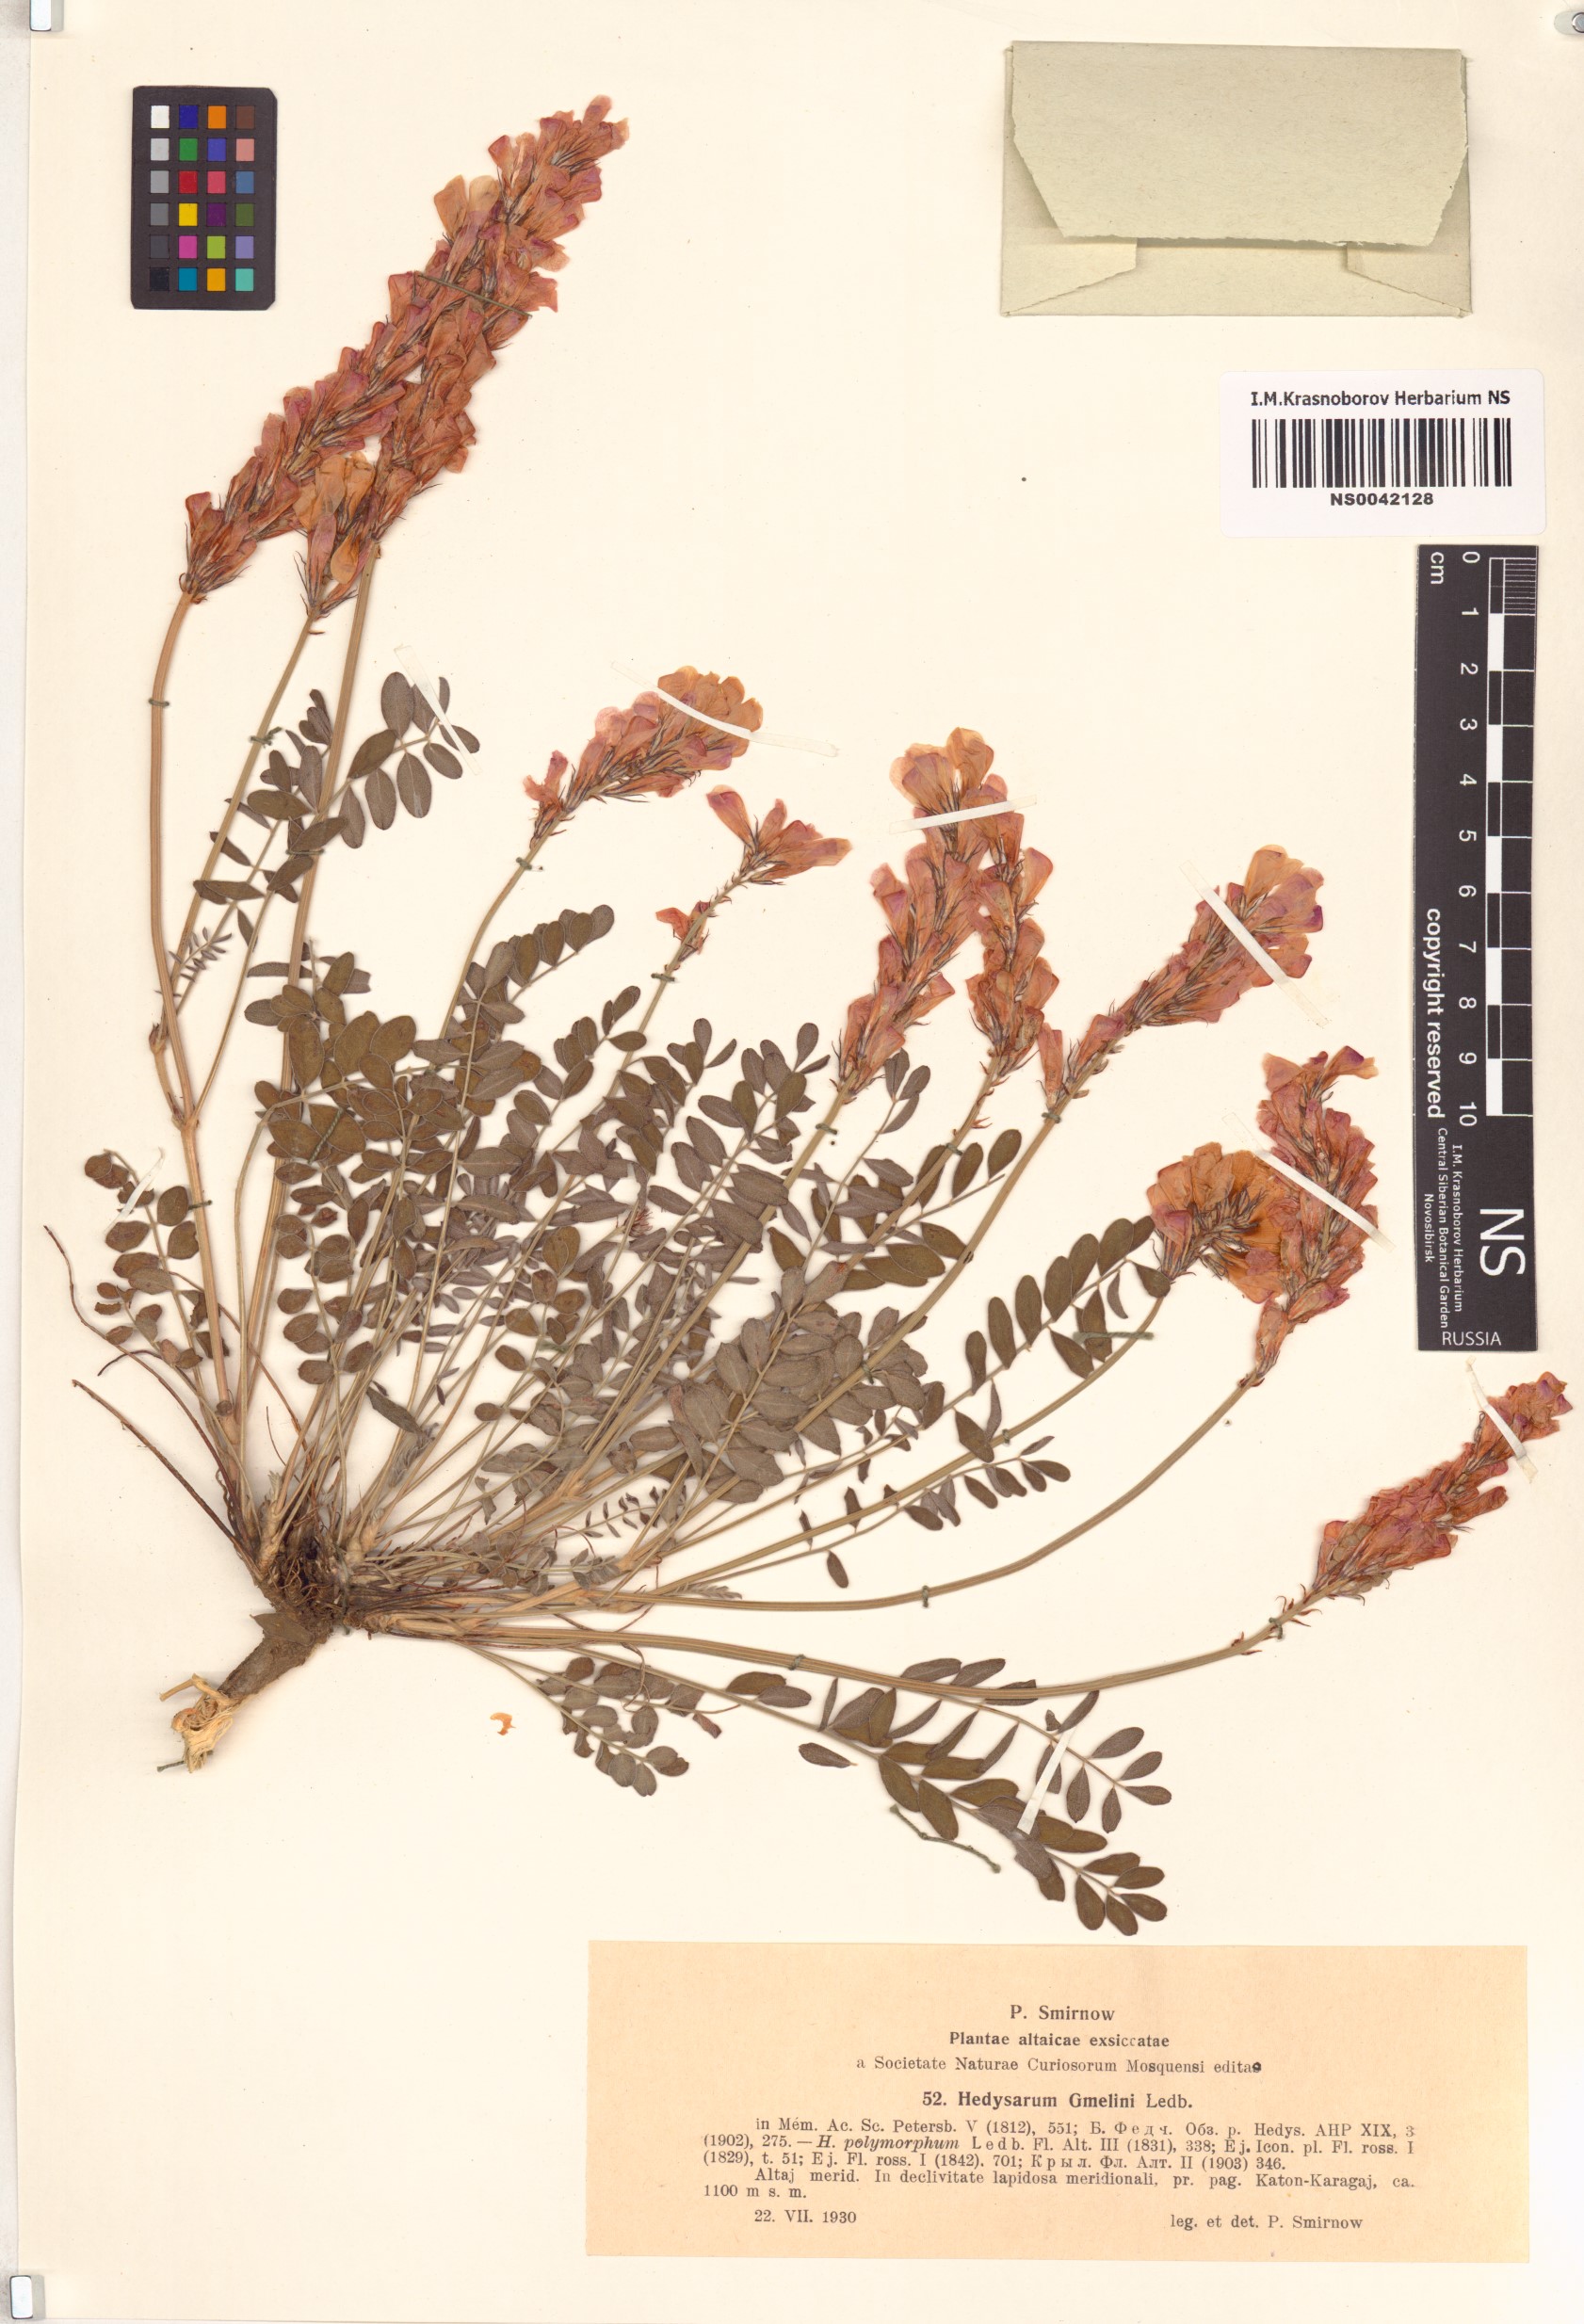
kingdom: Plantae
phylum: Tracheophyta
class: Magnoliopsida
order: Fabales
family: Fabaceae
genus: Hedysarum
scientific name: Hedysarum gmelinii
